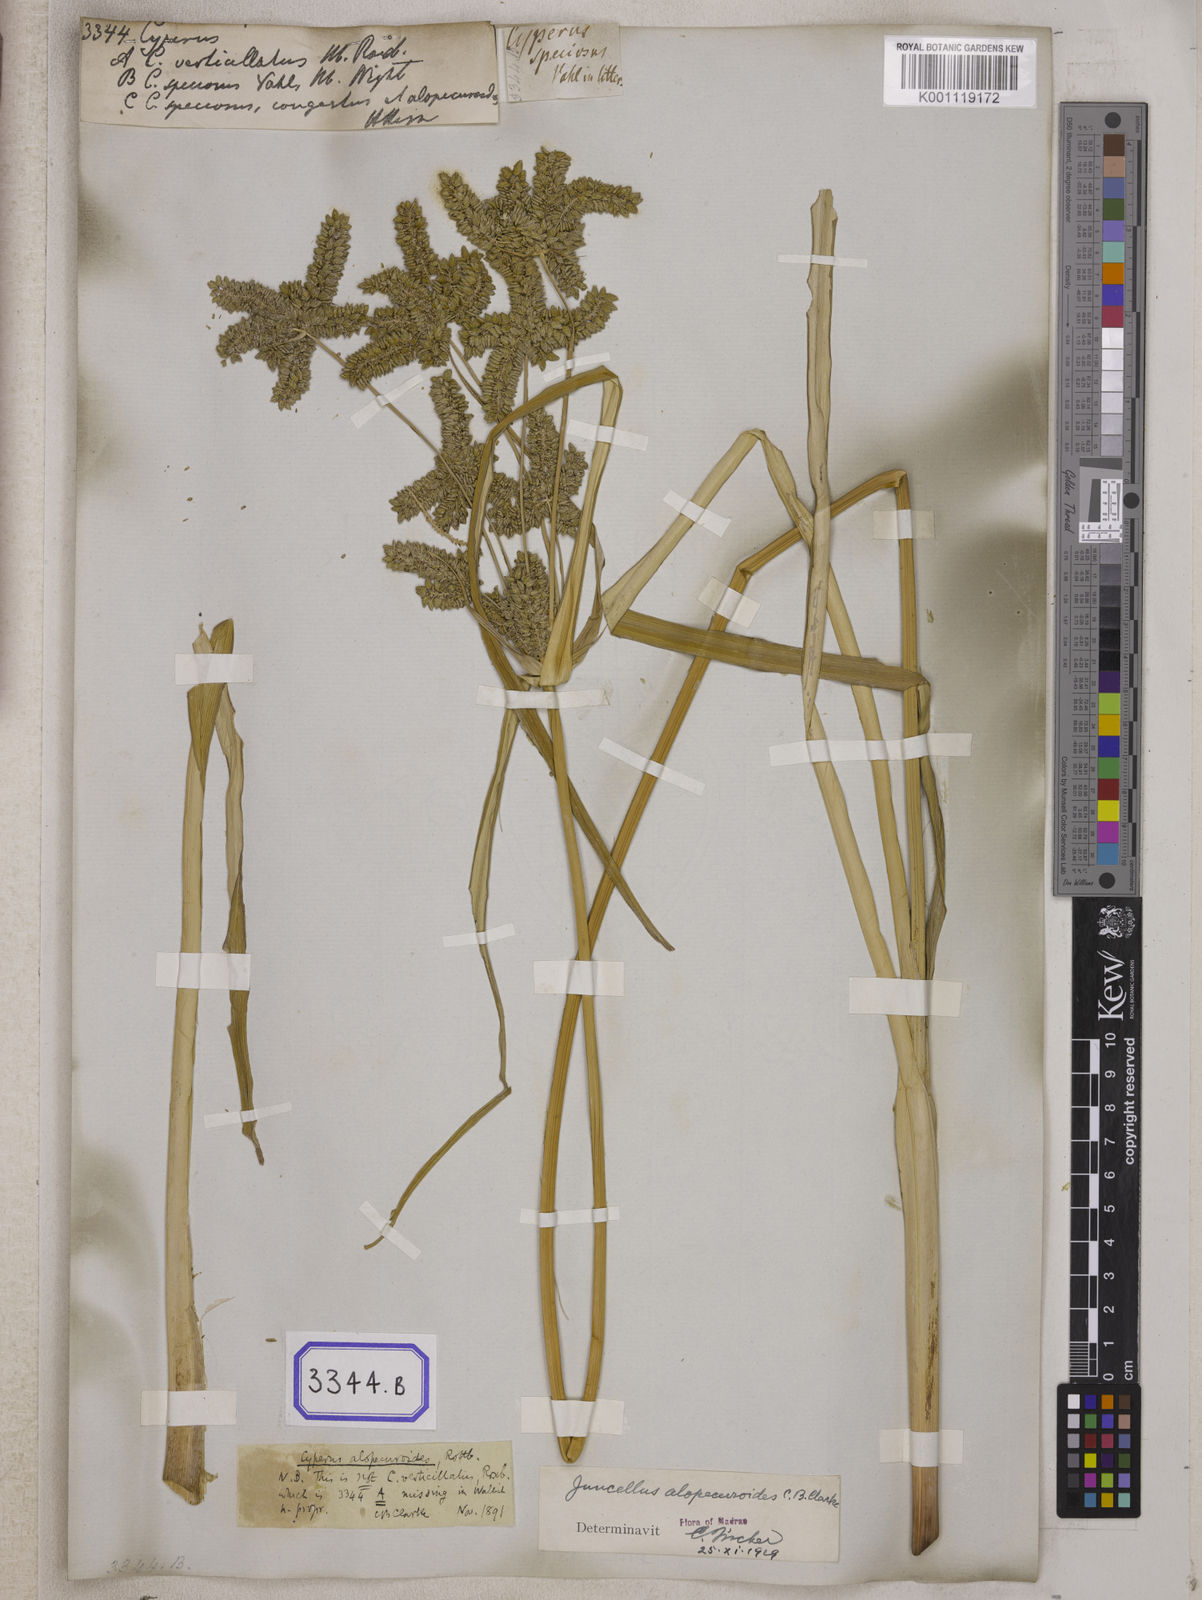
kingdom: Plantae
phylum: Tracheophyta
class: Liliopsida
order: Poales
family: Cyperaceae
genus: Cyperus
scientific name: Cyperus
